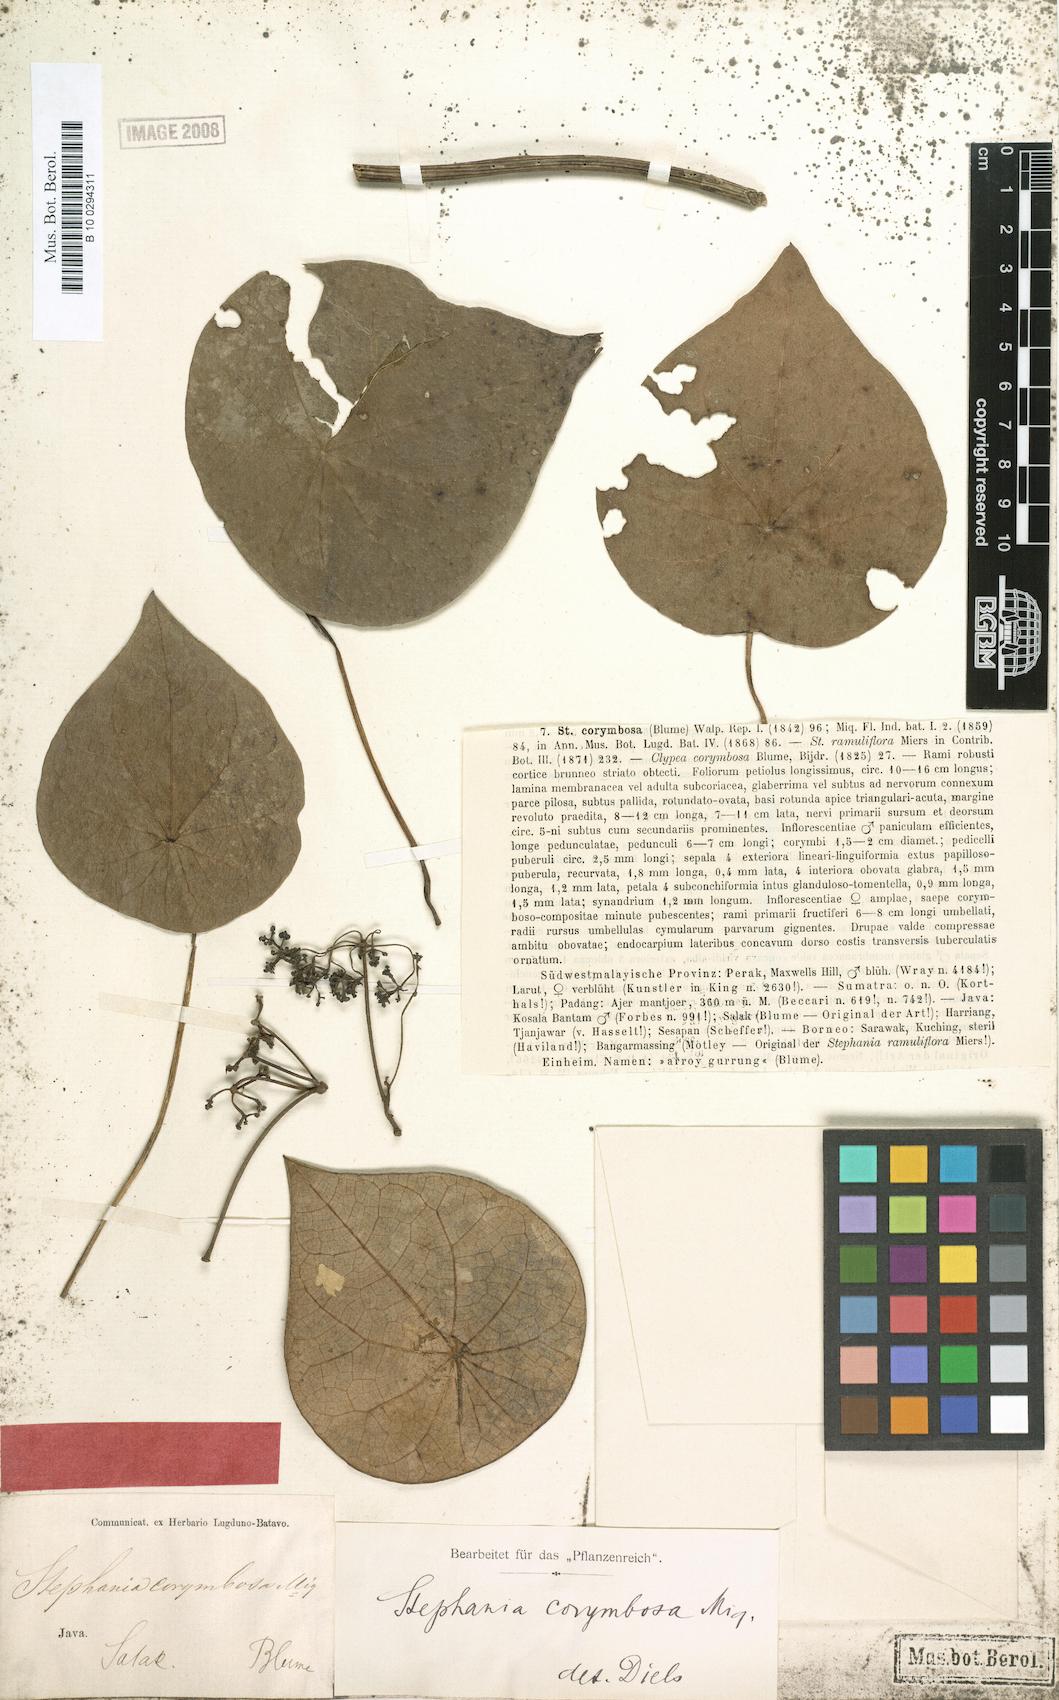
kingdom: Plantae
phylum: Tracheophyta
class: Magnoliopsida
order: Ranunculales
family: Menispermaceae
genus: Stephania
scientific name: Stephania corymbosa
